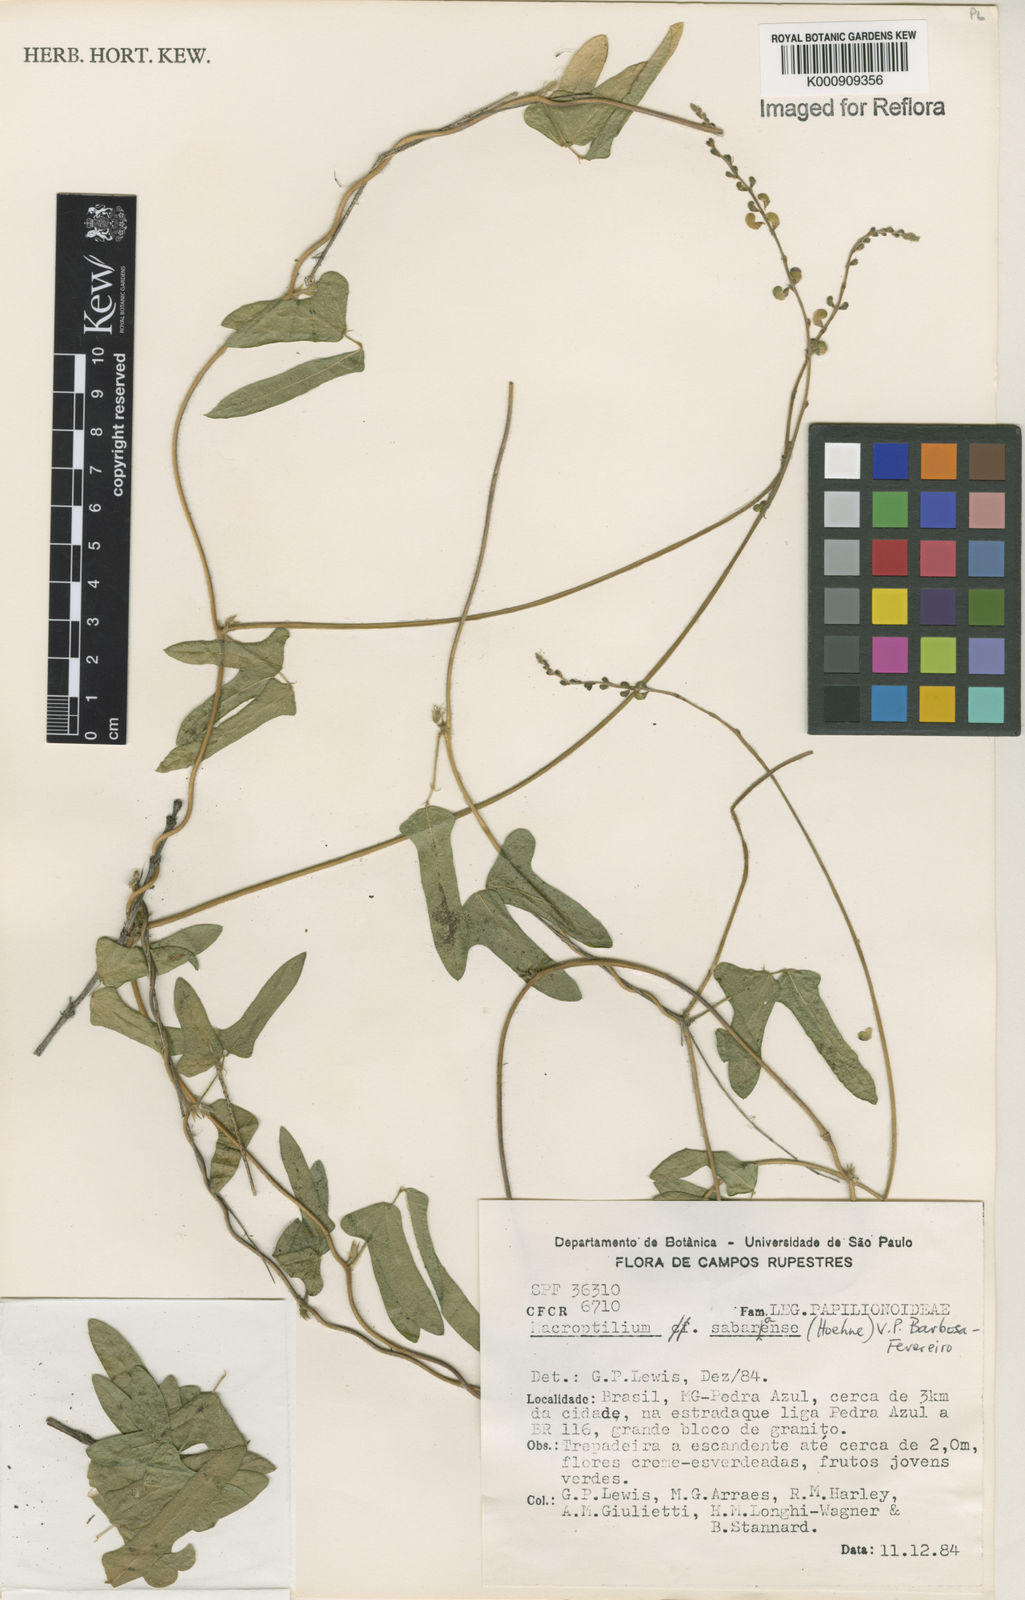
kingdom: Plantae
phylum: Tracheophyta
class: Magnoliopsida
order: Fabales
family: Fabaceae
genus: Macroptilium
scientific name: Macroptilium sabaraense
